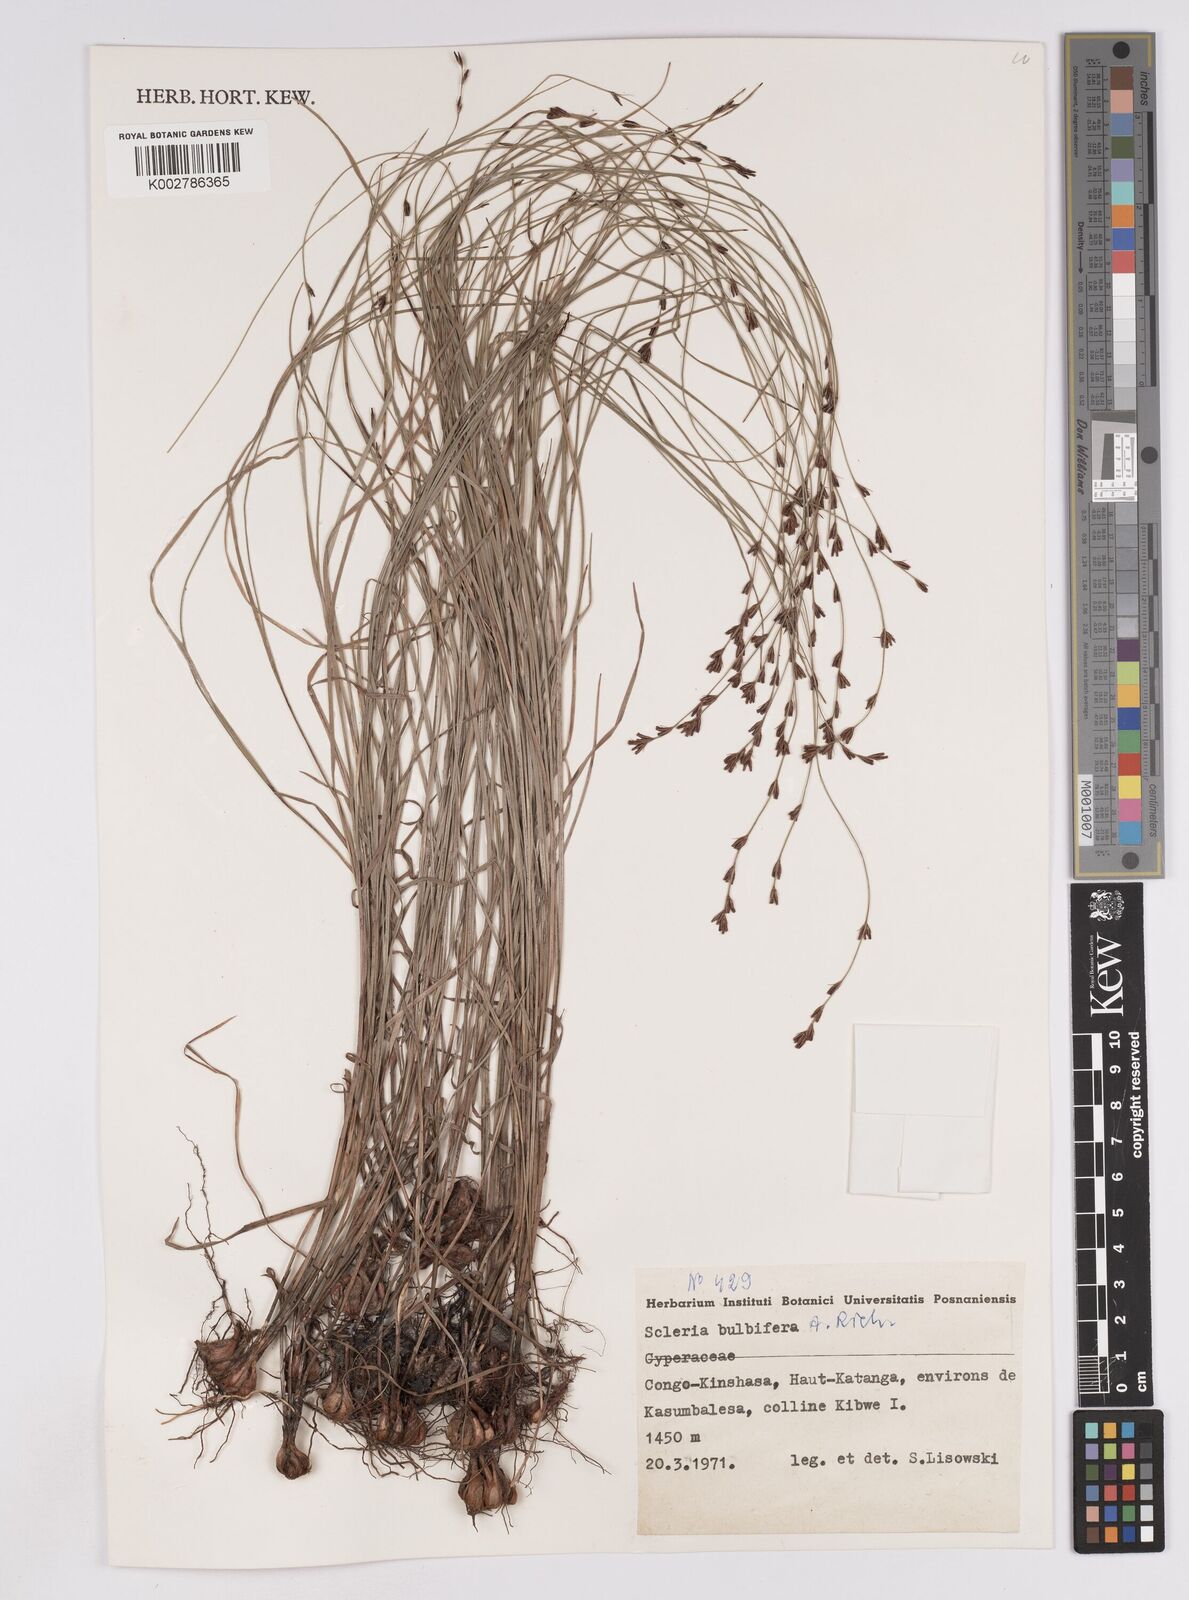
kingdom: Plantae
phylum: Tracheophyta
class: Liliopsida
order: Poales
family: Cyperaceae
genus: Scleria
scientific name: Scleria bulbifera
